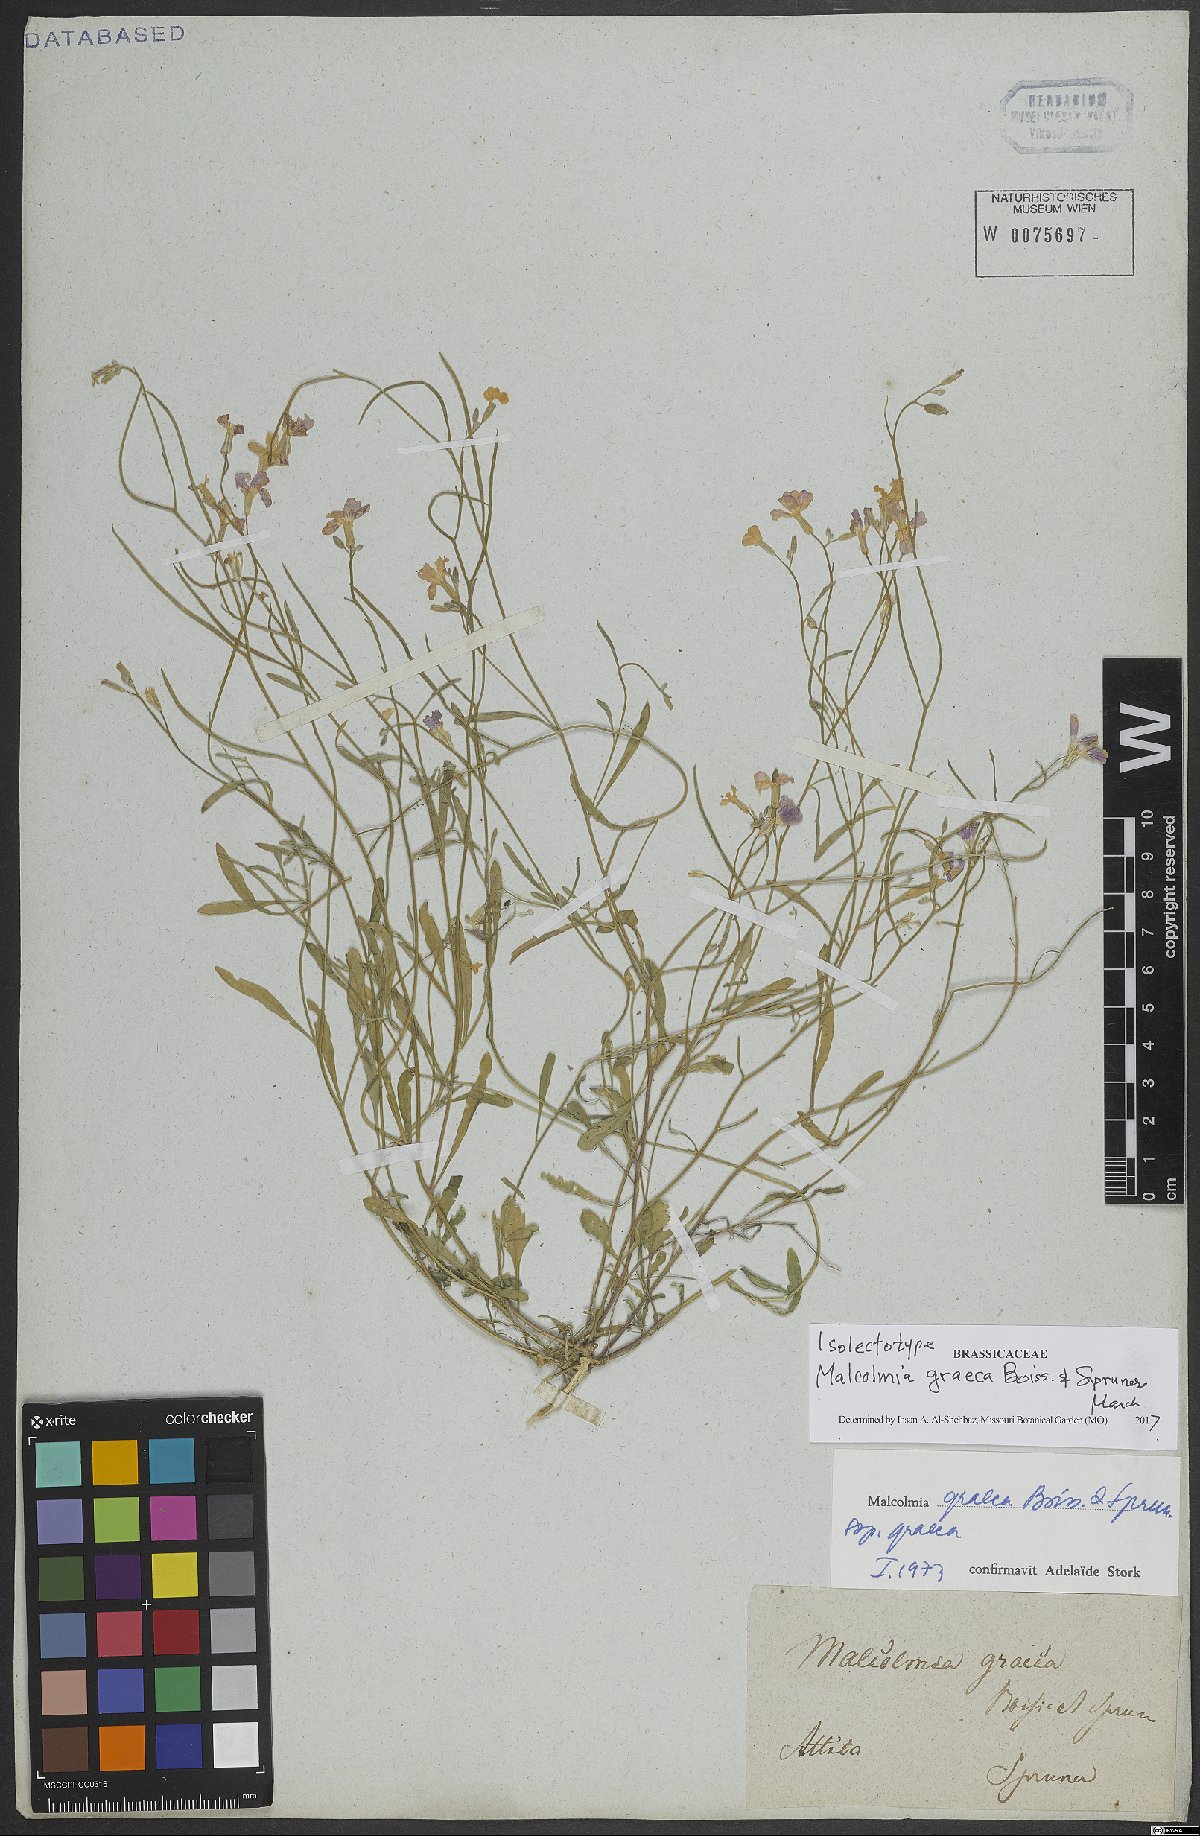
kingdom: Plantae
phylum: Tracheophyta
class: Magnoliopsida
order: Brassicales
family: Brassicaceae
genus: Malcolmia
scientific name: Malcolmia graeca
